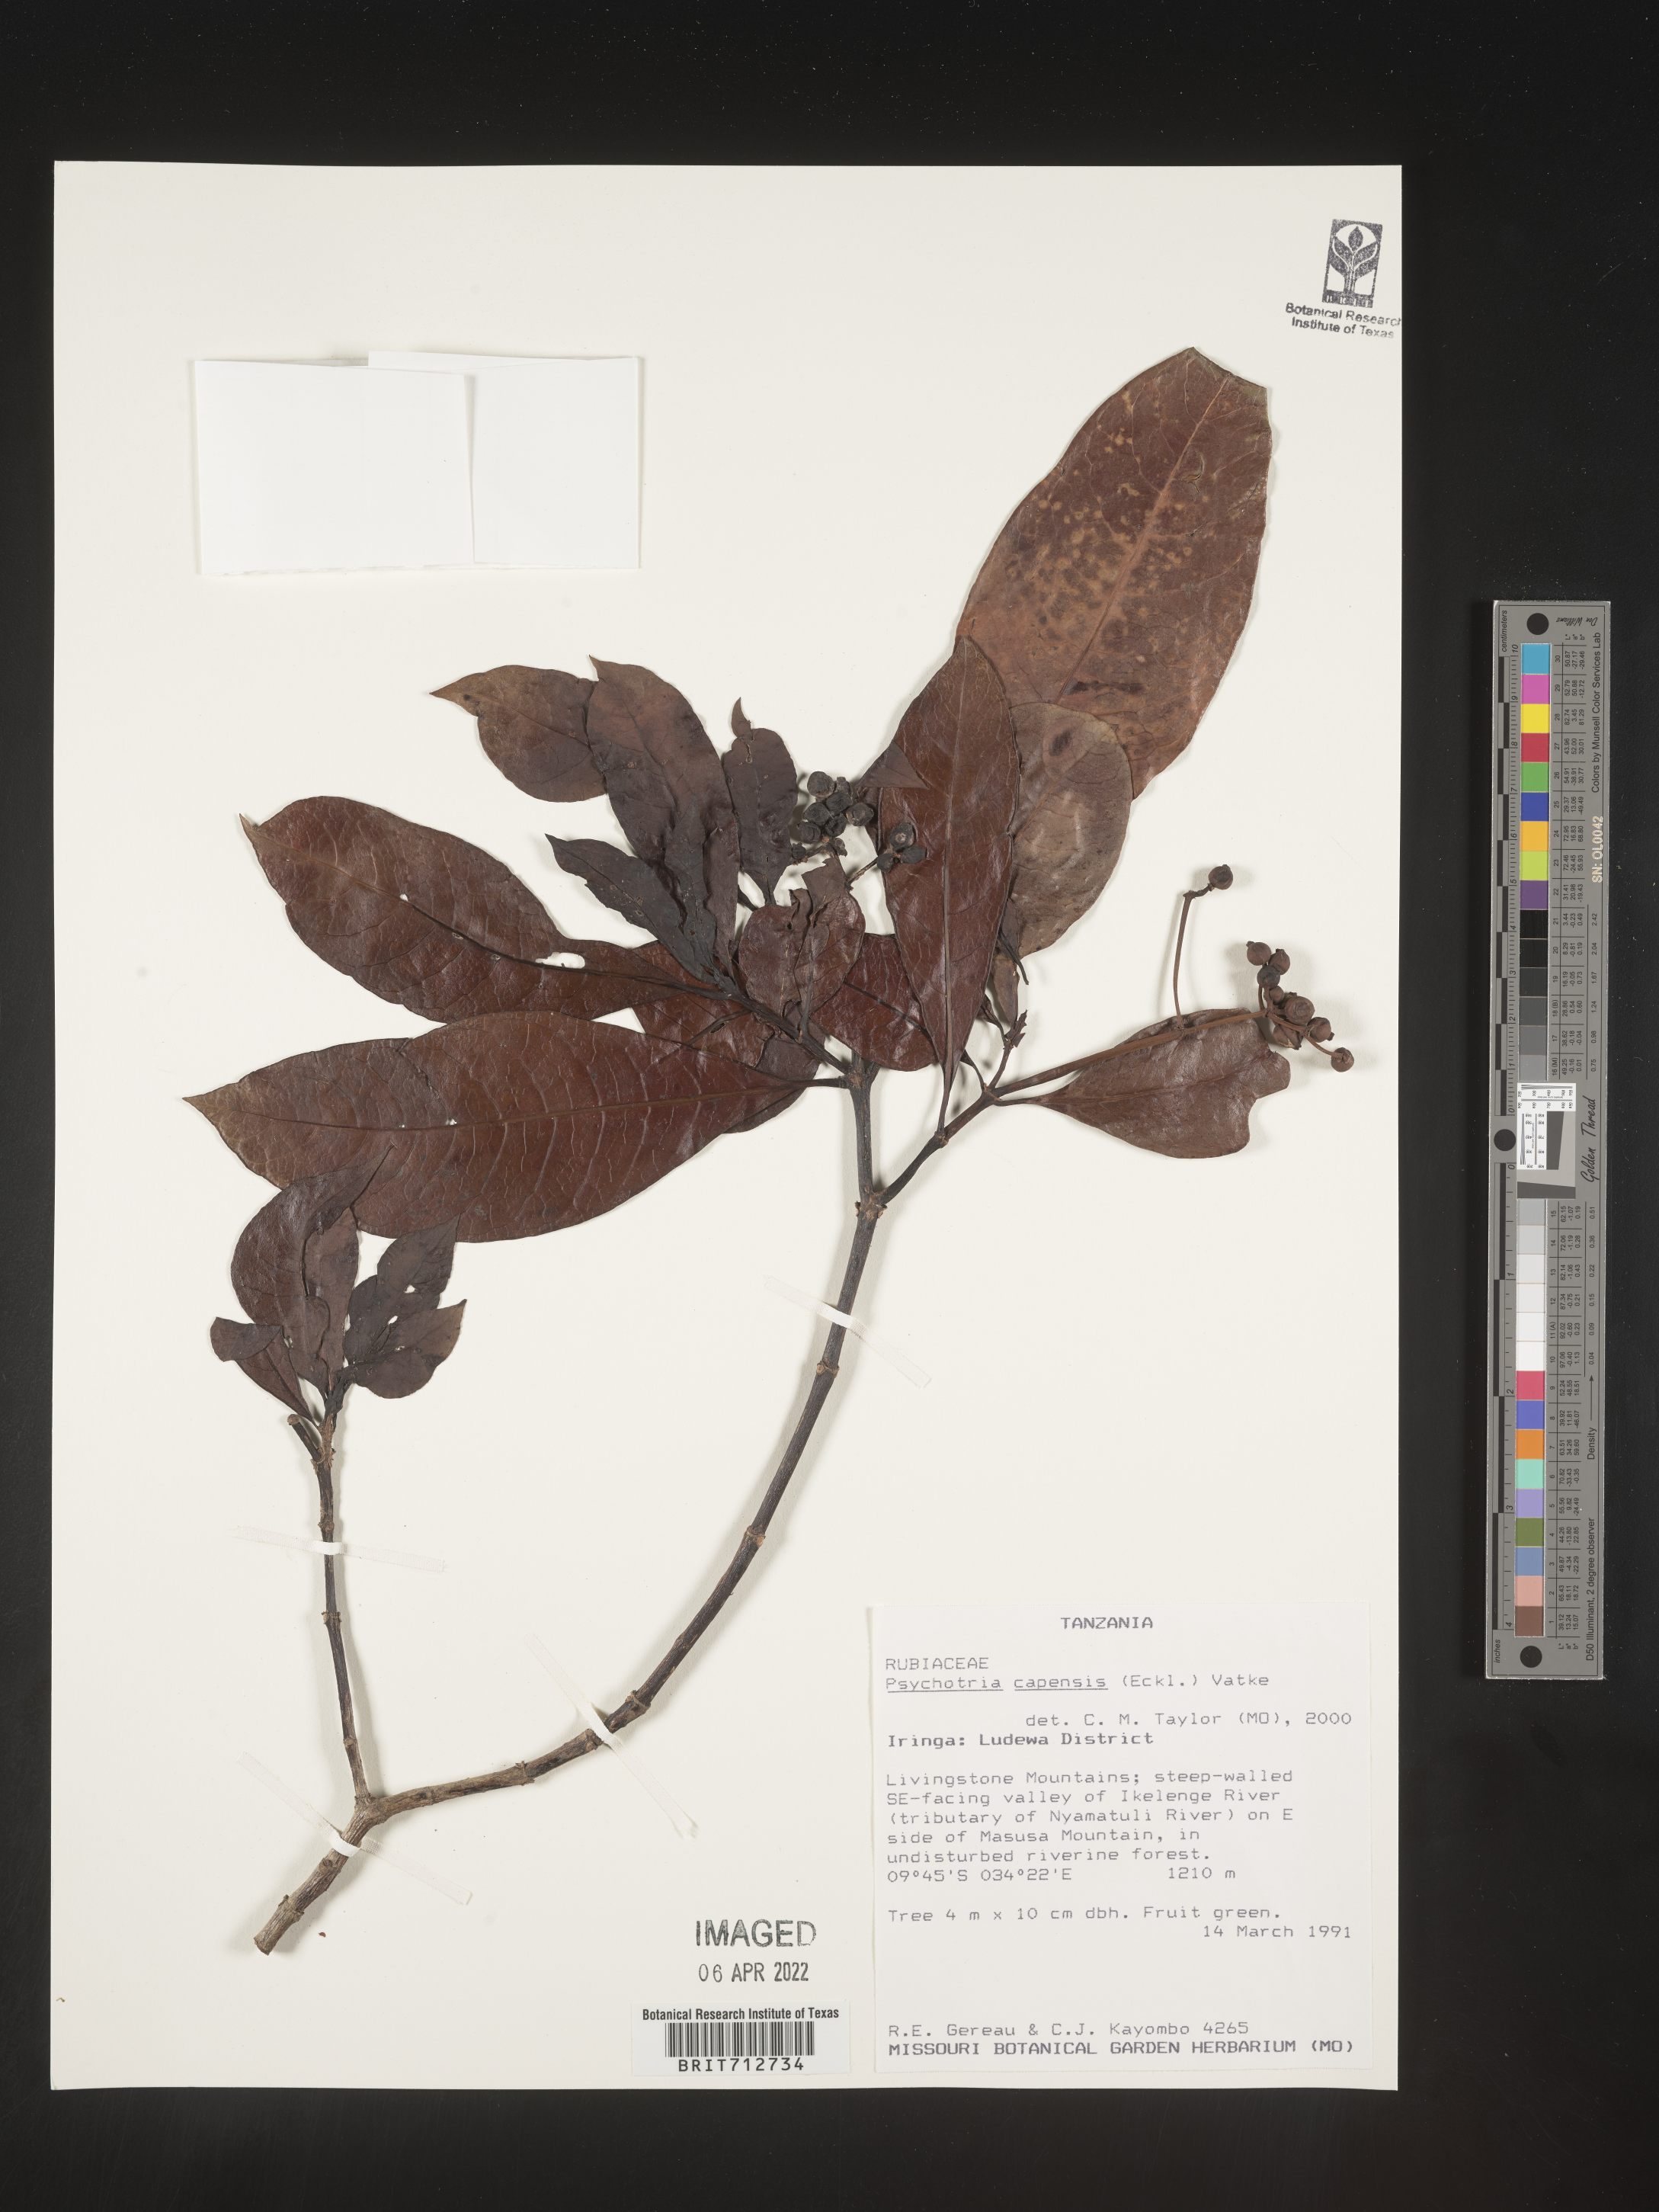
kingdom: Plantae
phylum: Tracheophyta
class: Magnoliopsida
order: Gentianales
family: Rubiaceae
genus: Psychotria
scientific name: Psychotria capensis
